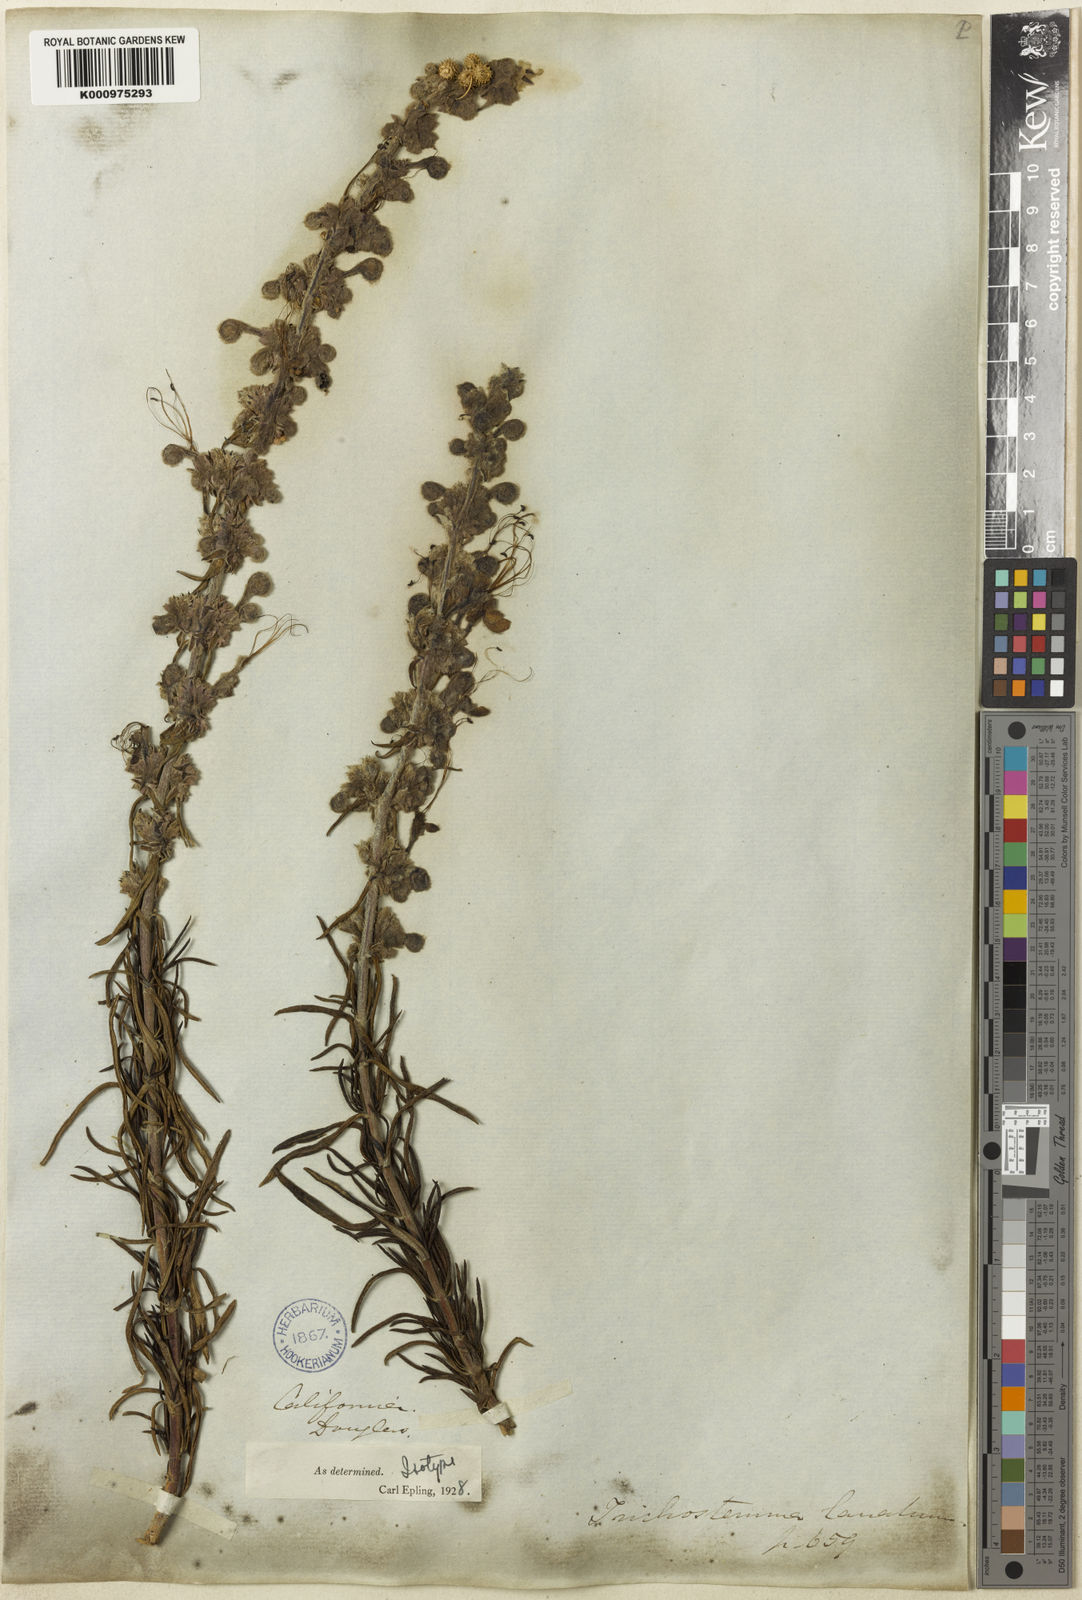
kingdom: Plantae
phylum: Tracheophyta
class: Magnoliopsida
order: Lamiales
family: Lamiaceae
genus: Trichostema
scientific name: Trichostema lanatum
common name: Woolly bluecurls
